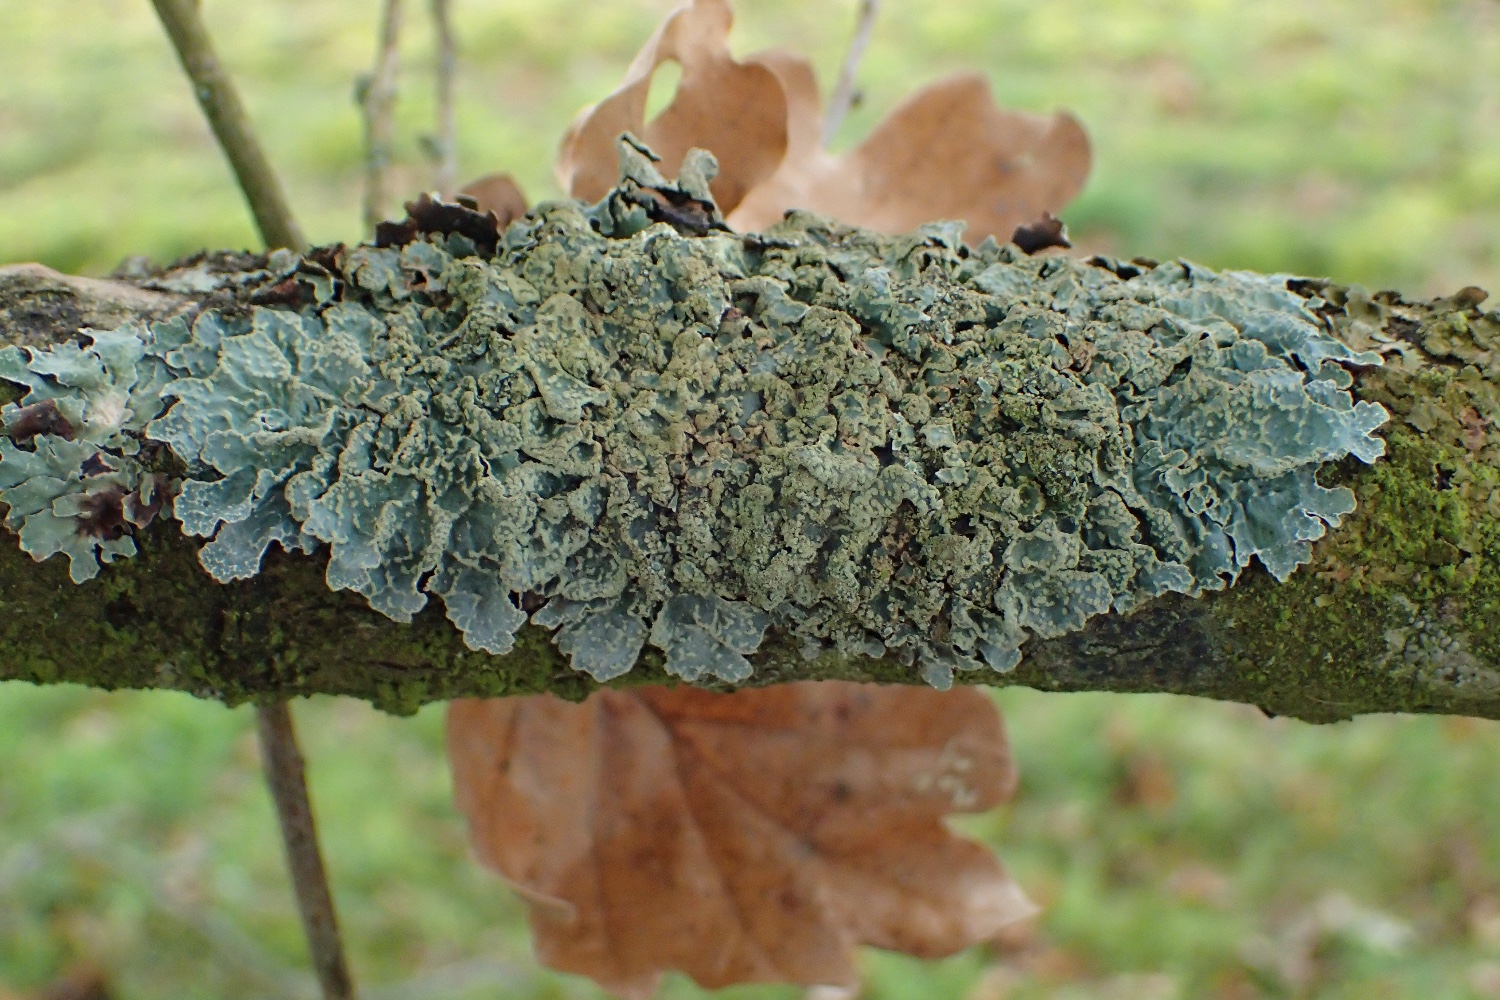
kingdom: Fungi
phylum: Ascomycota
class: Lecanoromycetes
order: Lecanorales
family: Parmeliaceae
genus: Parmelia
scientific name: Parmelia sulcata
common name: rynket skållav
